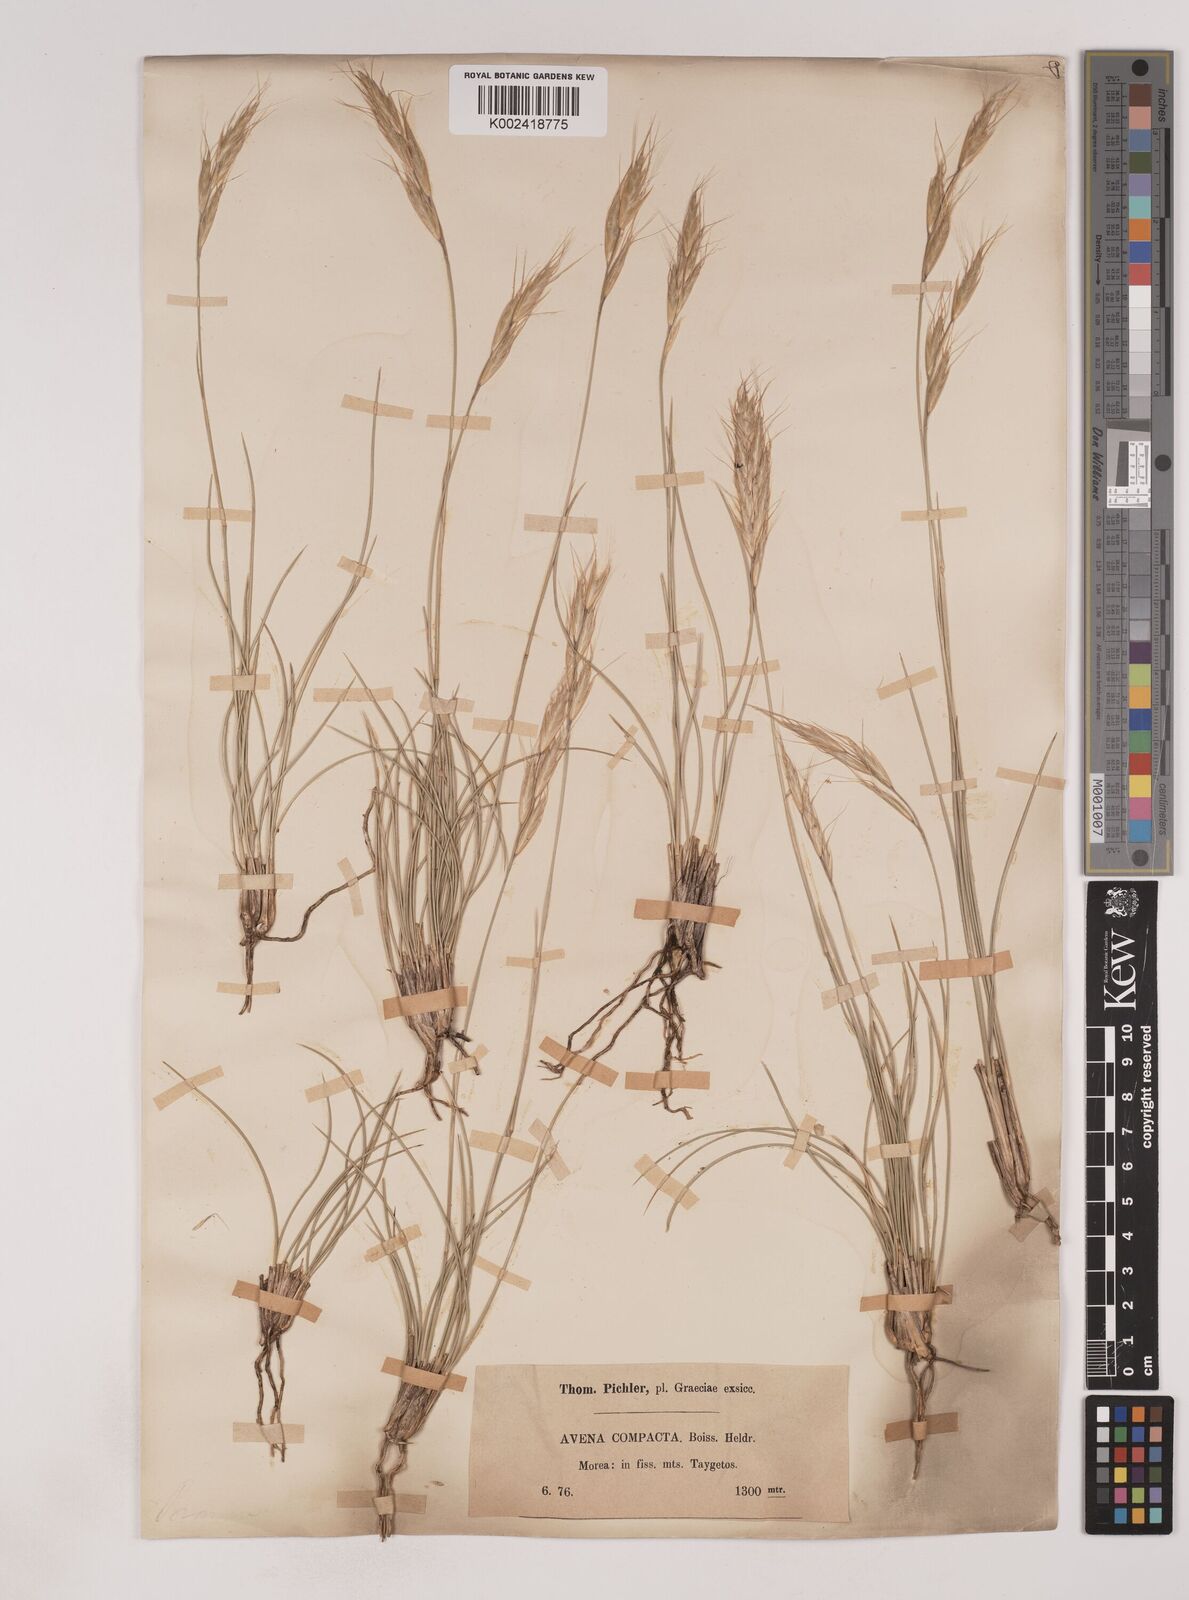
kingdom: Plantae
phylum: Tracheophyta
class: Liliopsida
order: Poales
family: Poaceae
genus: Danthoniastrum
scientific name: Danthoniastrum compactum
